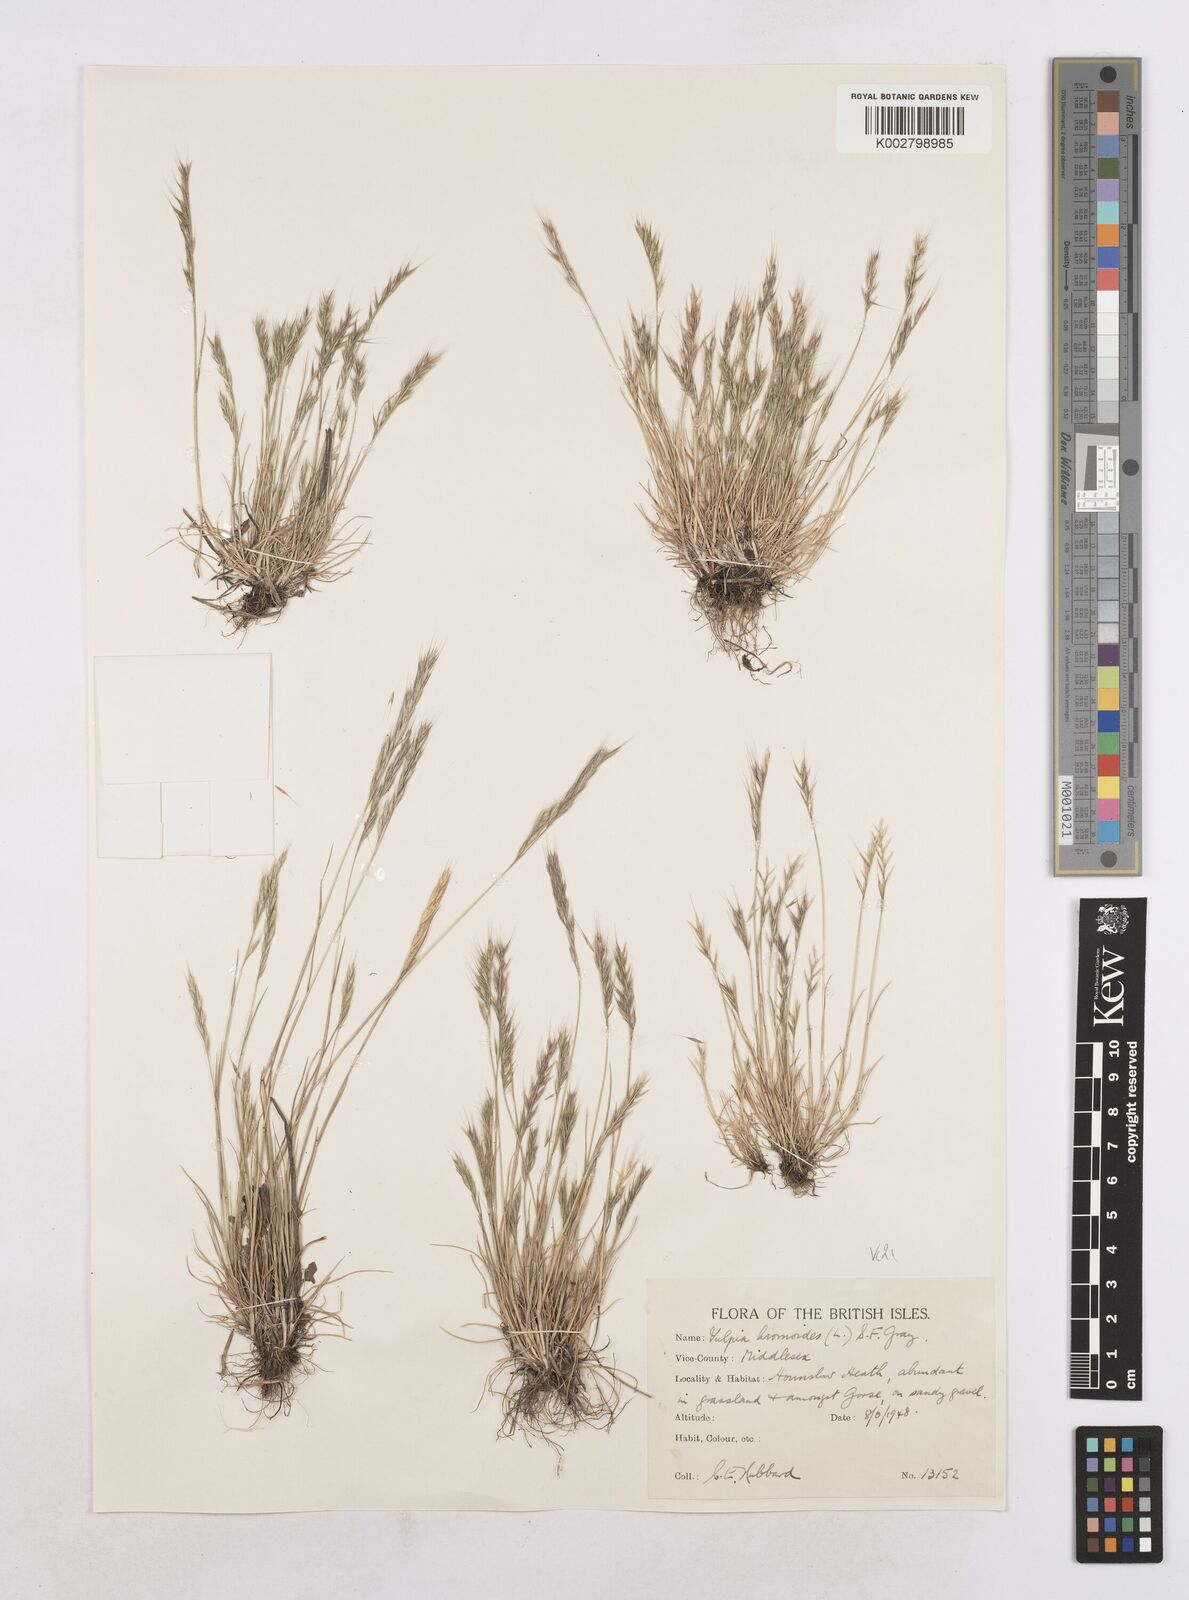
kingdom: Plantae
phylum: Tracheophyta
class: Liliopsida
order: Poales
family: Poaceae
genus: Festuca
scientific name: Festuca bromoides
